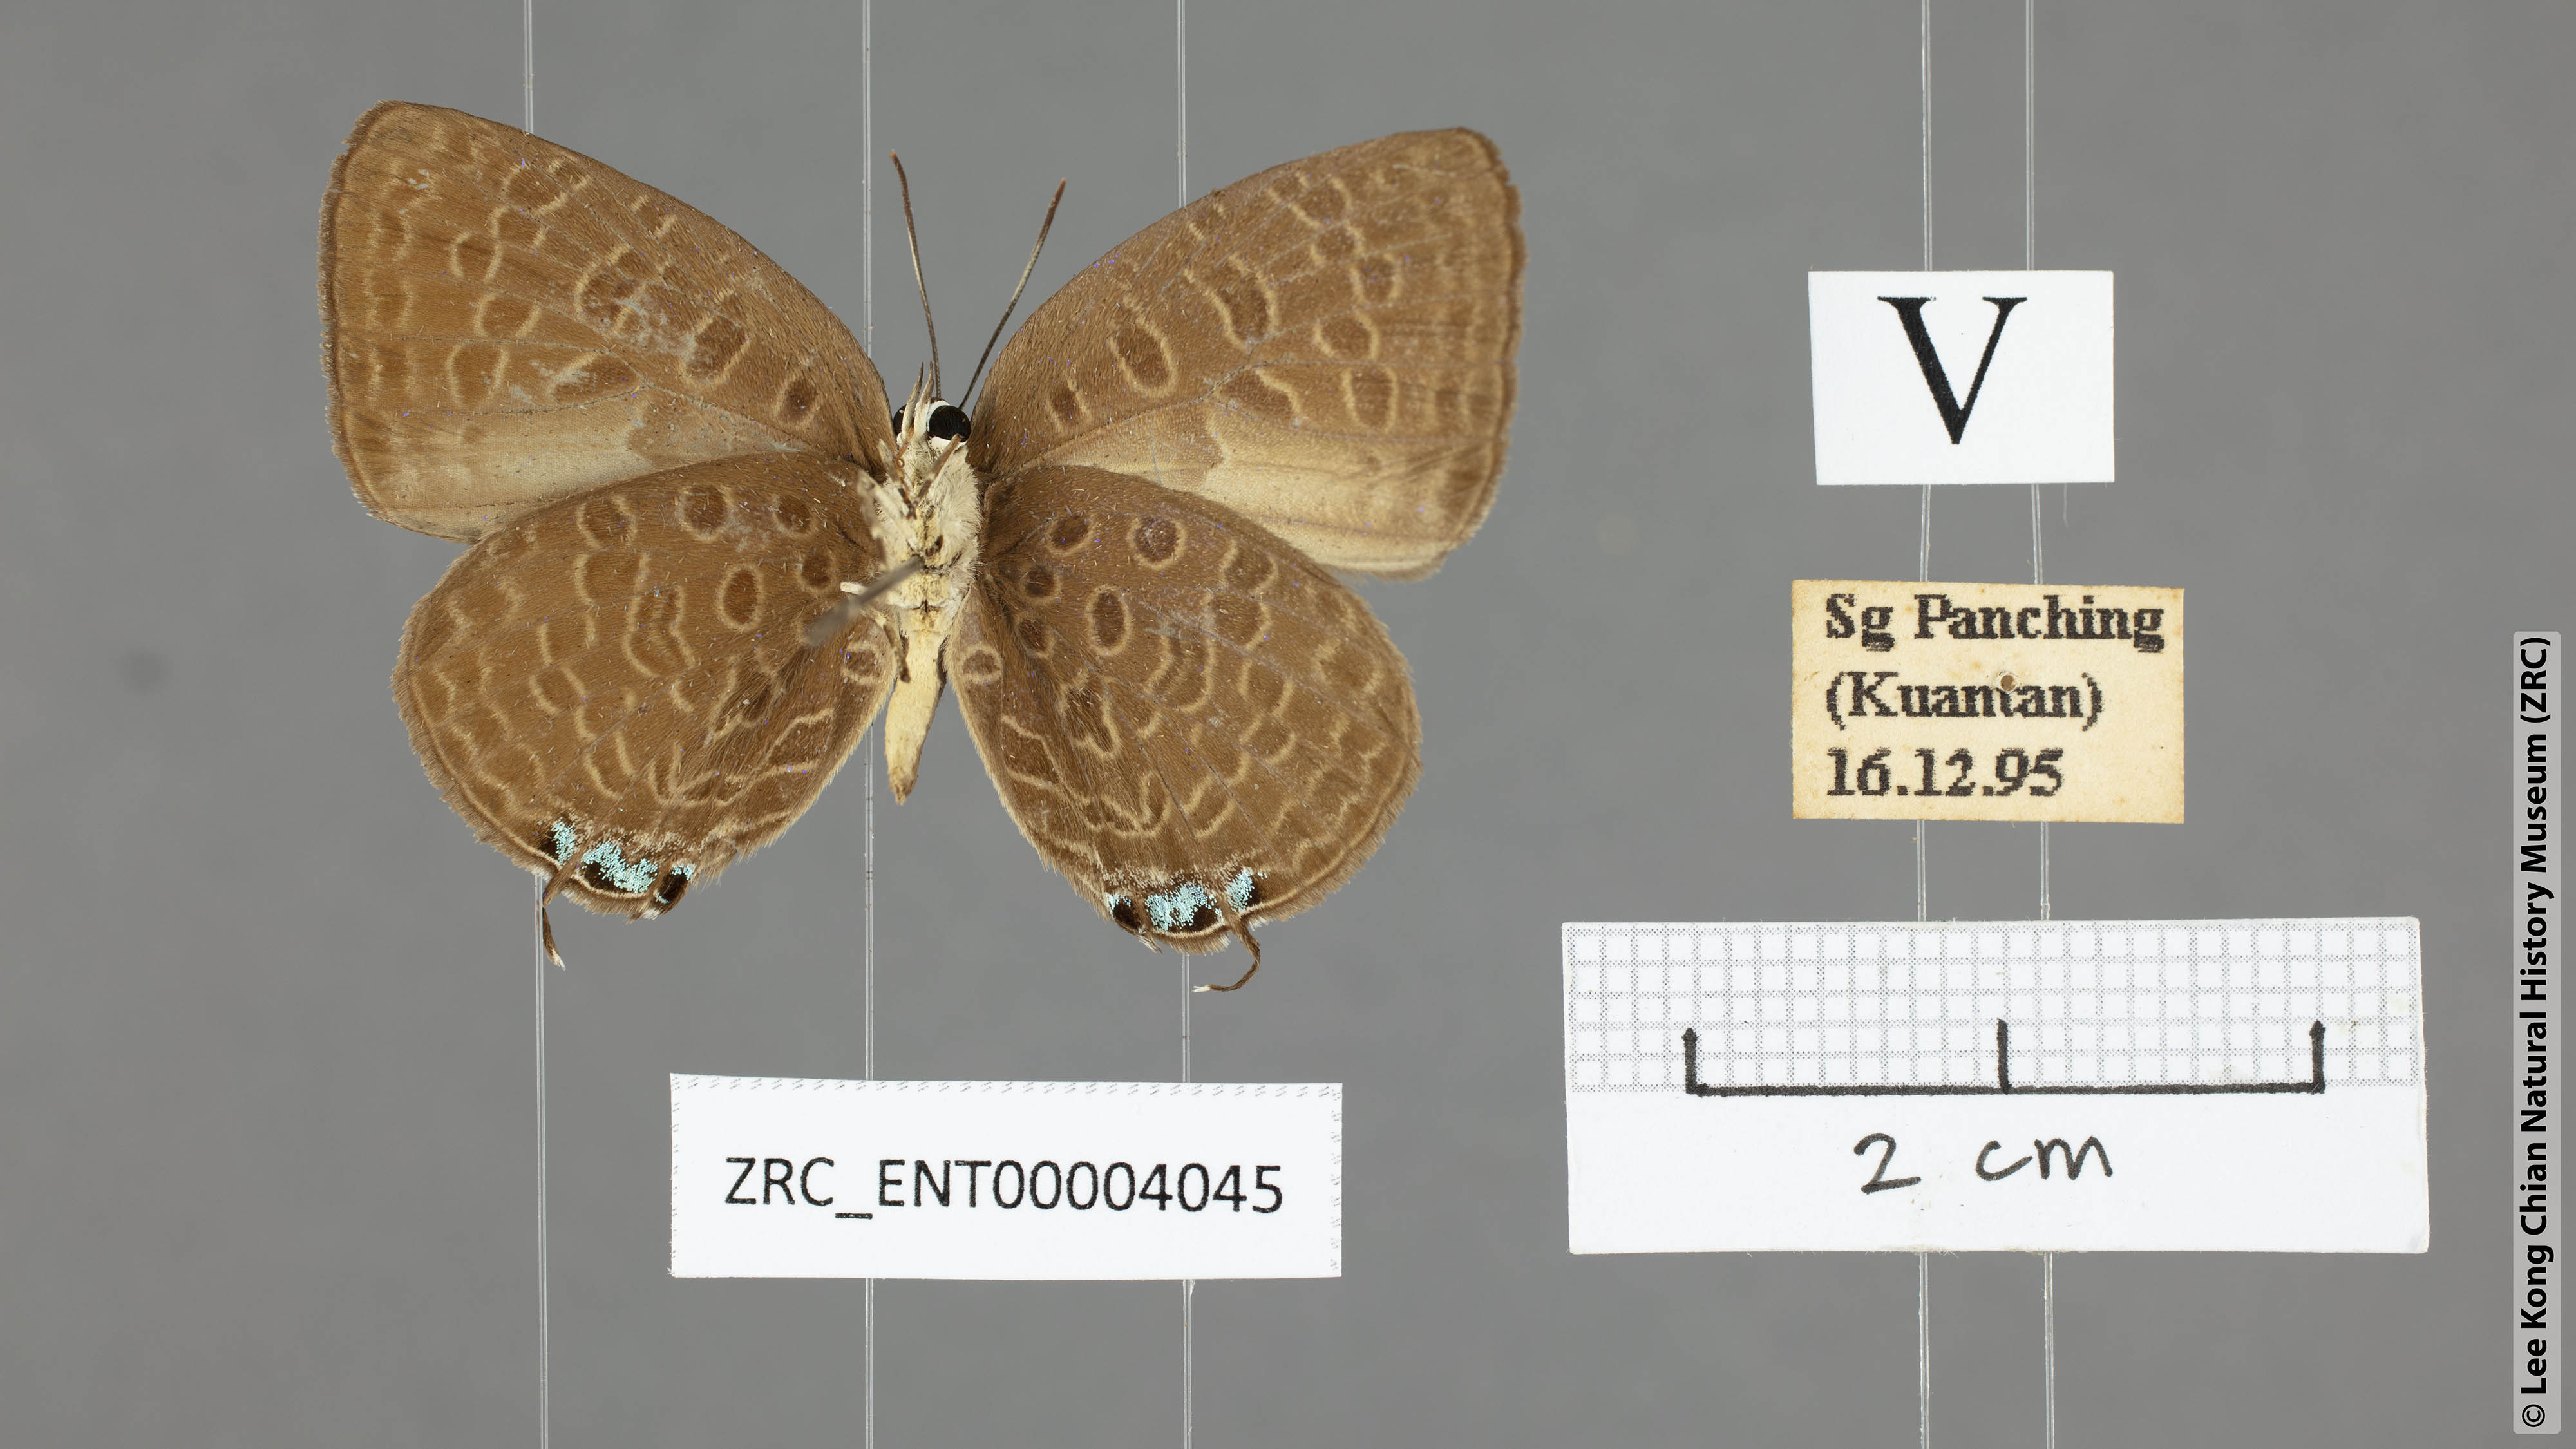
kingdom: Animalia
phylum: Arthropoda
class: Insecta
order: Lepidoptera
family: Lycaenidae
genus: Arhopala
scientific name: Arhopala pseudomuta
